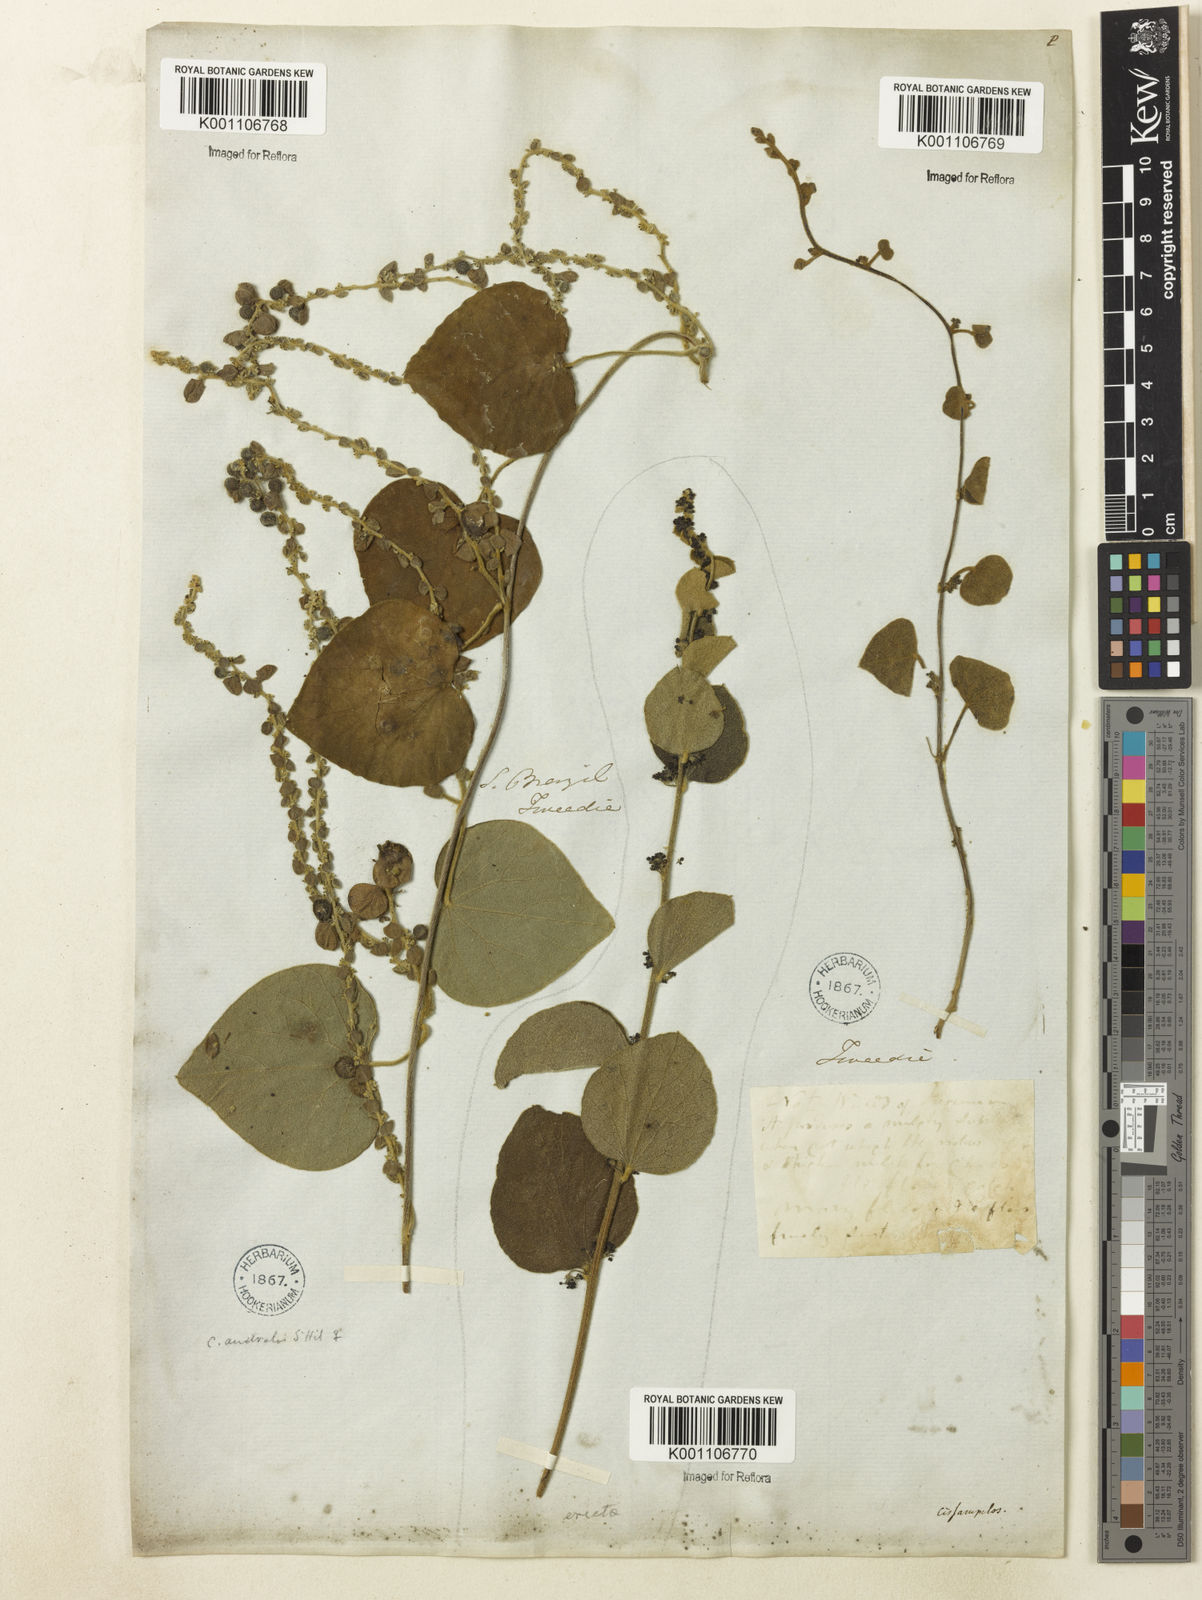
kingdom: Plantae
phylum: Tracheophyta
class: Magnoliopsida
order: Ranunculales
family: Menispermaceae
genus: Cissampelos
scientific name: Cissampelos pareira
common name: Velvetleaf
